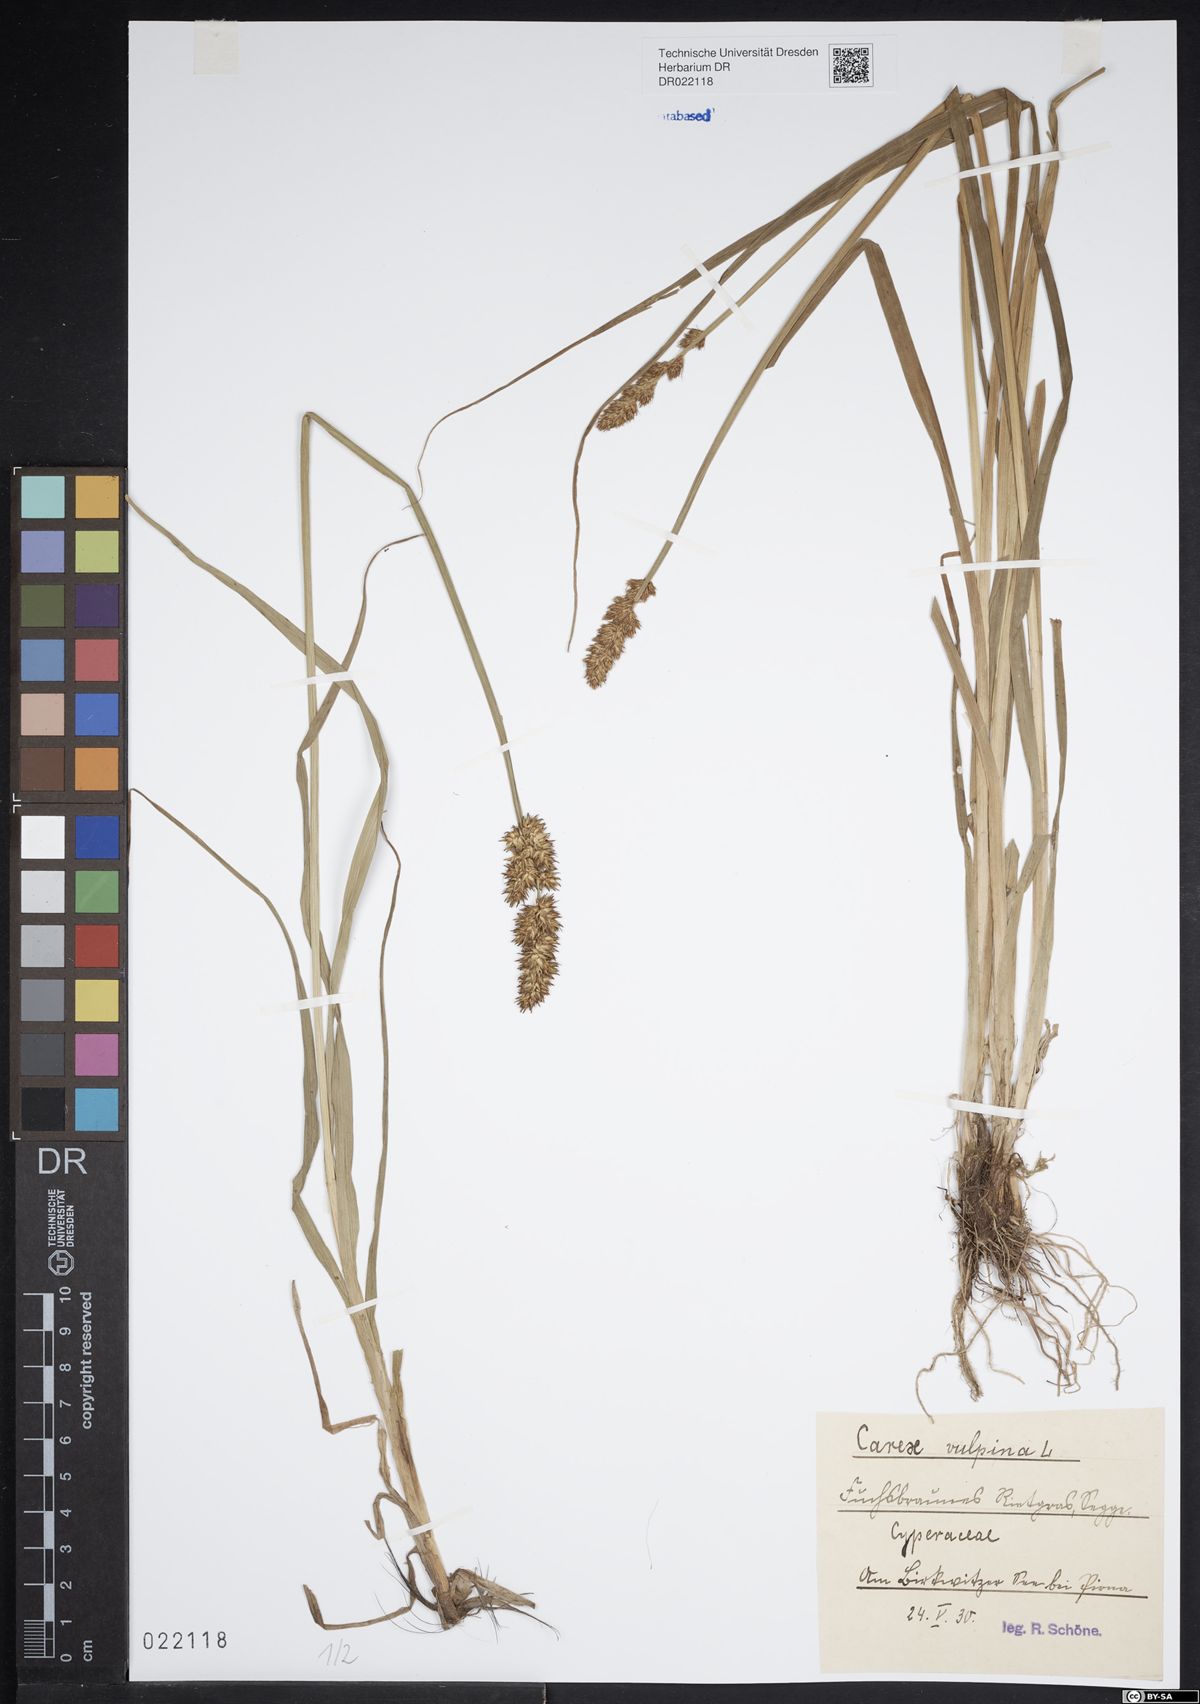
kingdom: Plantae
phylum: Tracheophyta
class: Liliopsida
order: Poales
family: Cyperaceae
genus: Carex
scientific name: Carex vulpina
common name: True fox-sedge
